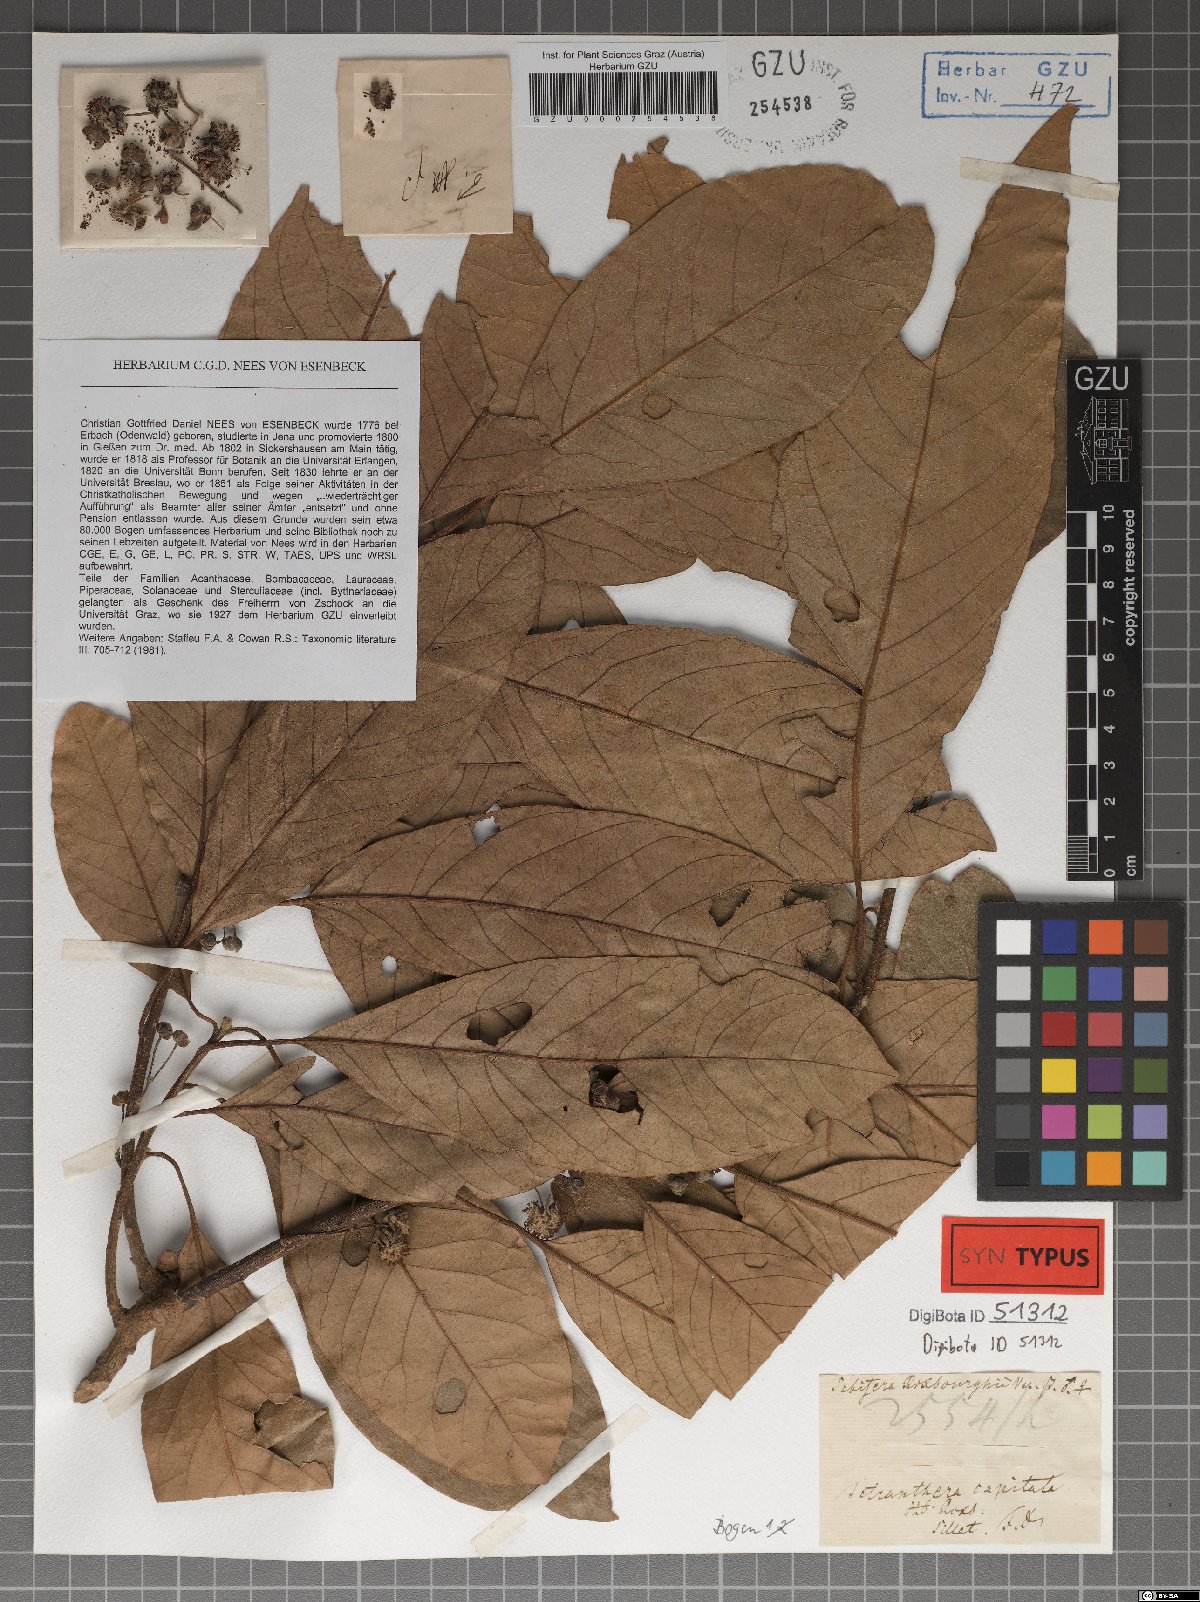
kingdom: Plantae
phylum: Tracheophyta
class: Magnoliopsida
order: Laurales
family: Lauraceae
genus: Litsea
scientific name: Litsea glutinosa
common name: Indian-laurel
